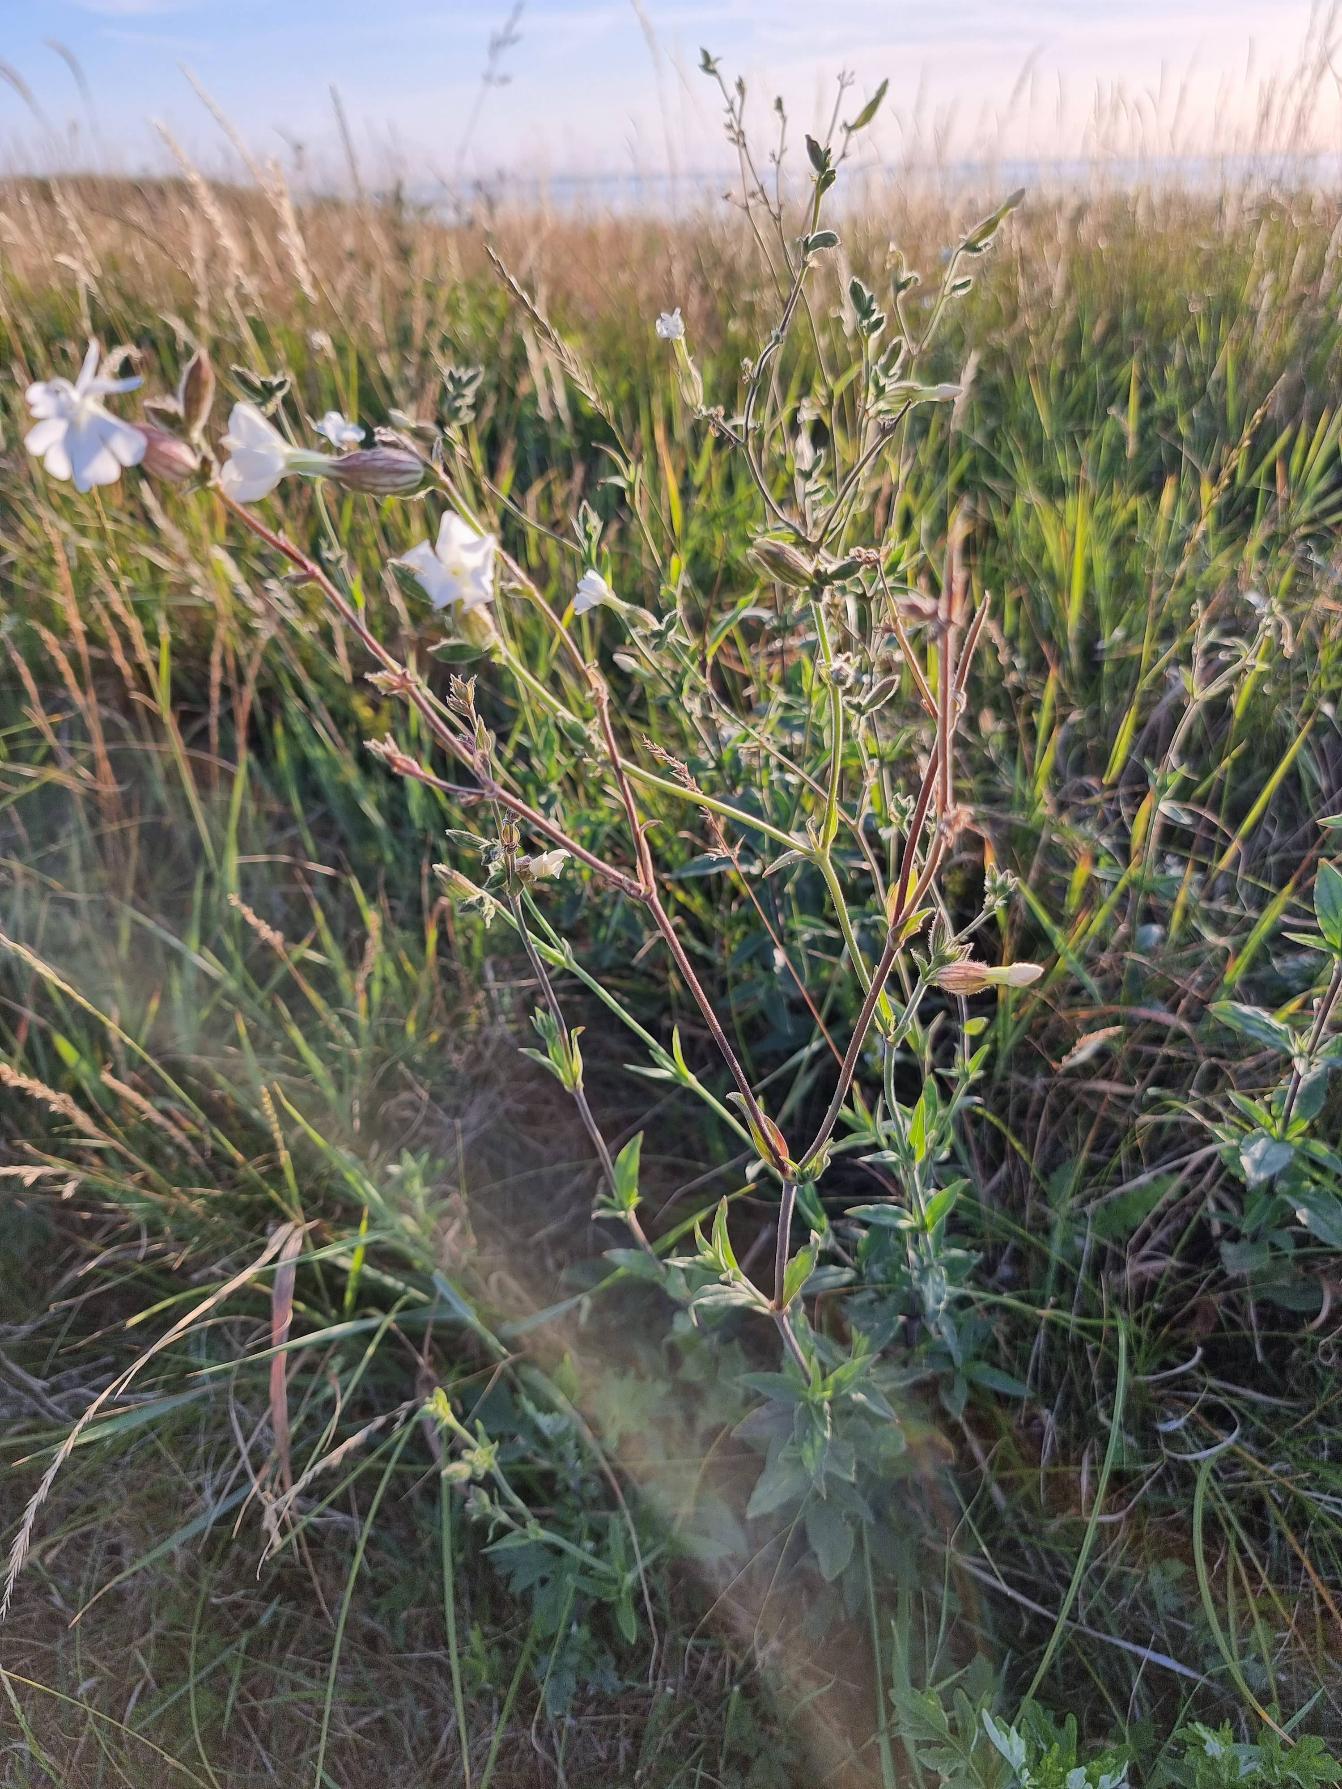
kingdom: Plantae
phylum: Tracheophyta
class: Magnoliopsida
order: Caryophyllales
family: Caryophyllaceae
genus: Silene
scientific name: Silene latifolia
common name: Aftenpragtstjerne
